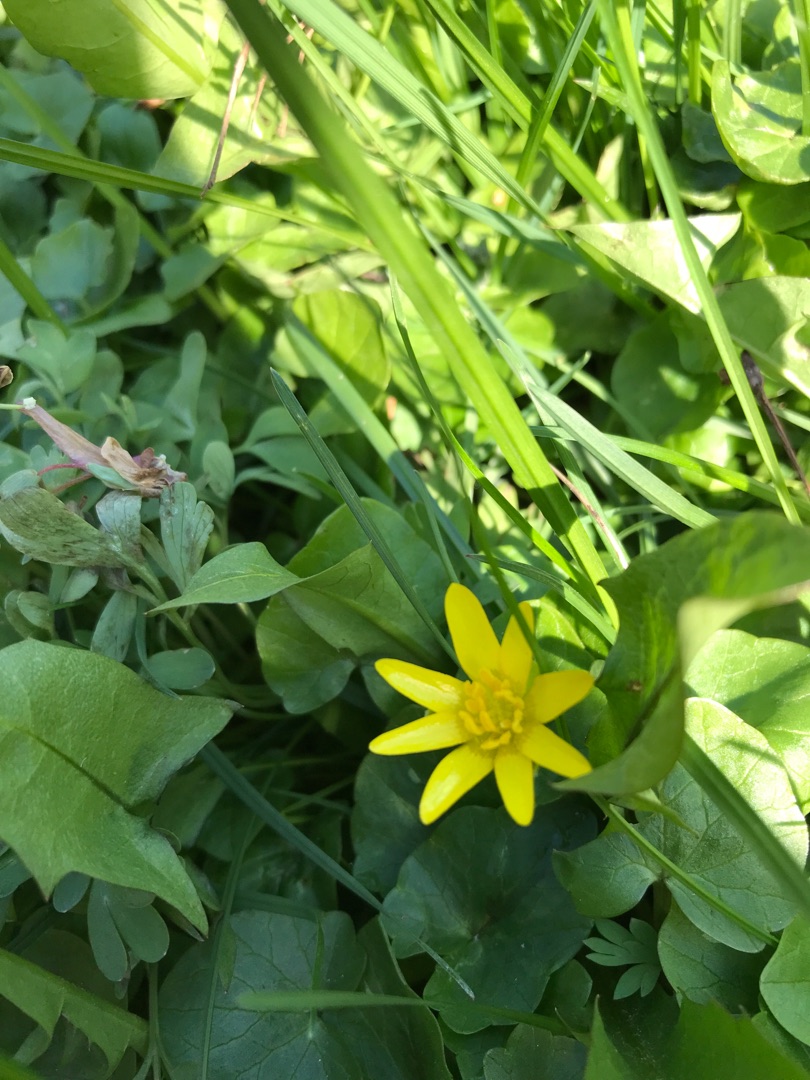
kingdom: Plantae
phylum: Tracheophyta
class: Magnoliopsida
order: Ranunculales
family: Ranunculaceae
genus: Ficaria
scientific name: Ficaria verna
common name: Vorterod
